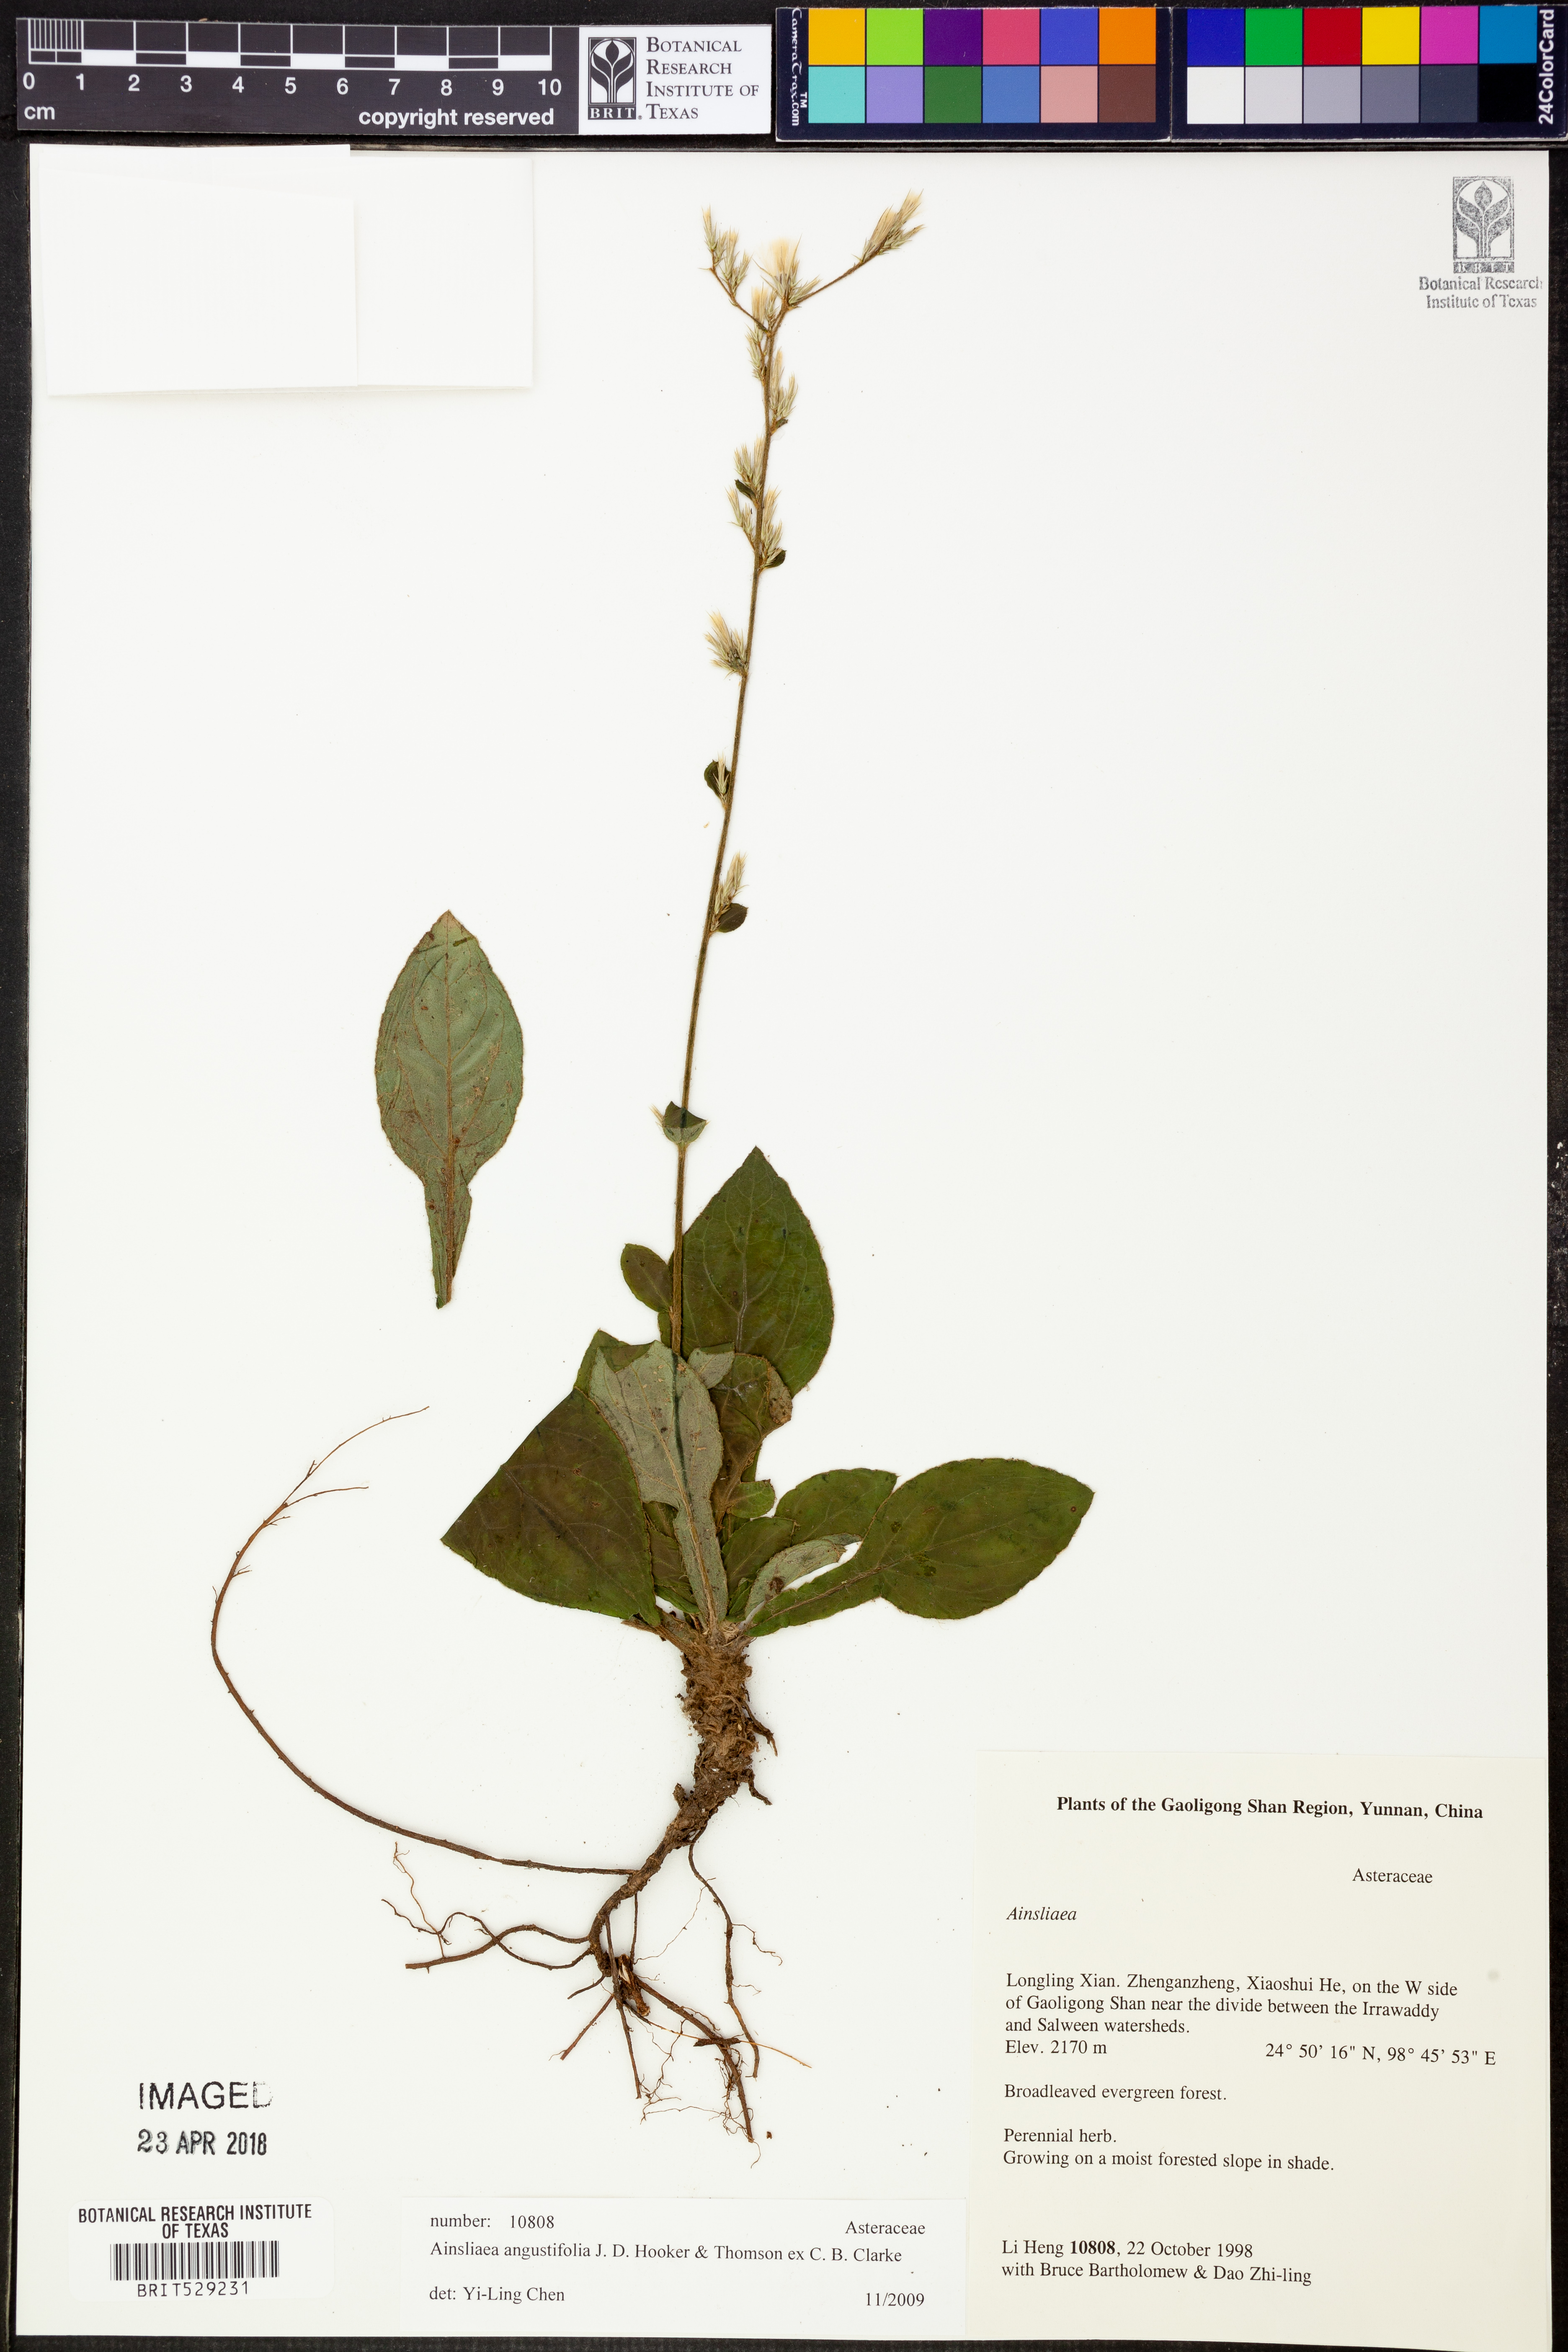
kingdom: Plantae
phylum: Tracheophyta
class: Magnoliopsida
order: Asterales
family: Asteraceae
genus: Ainsliaea
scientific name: Ainsliaea angustifolia
